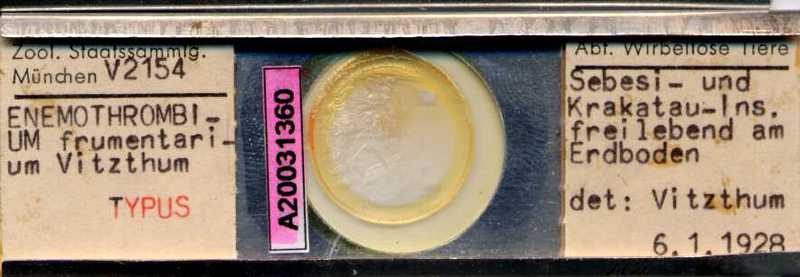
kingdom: Animalia
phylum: Arthropoda
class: Arachnida
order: Trombidiformes
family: Microtrombidiidae
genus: Enemothrombium
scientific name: Enemothrombium
